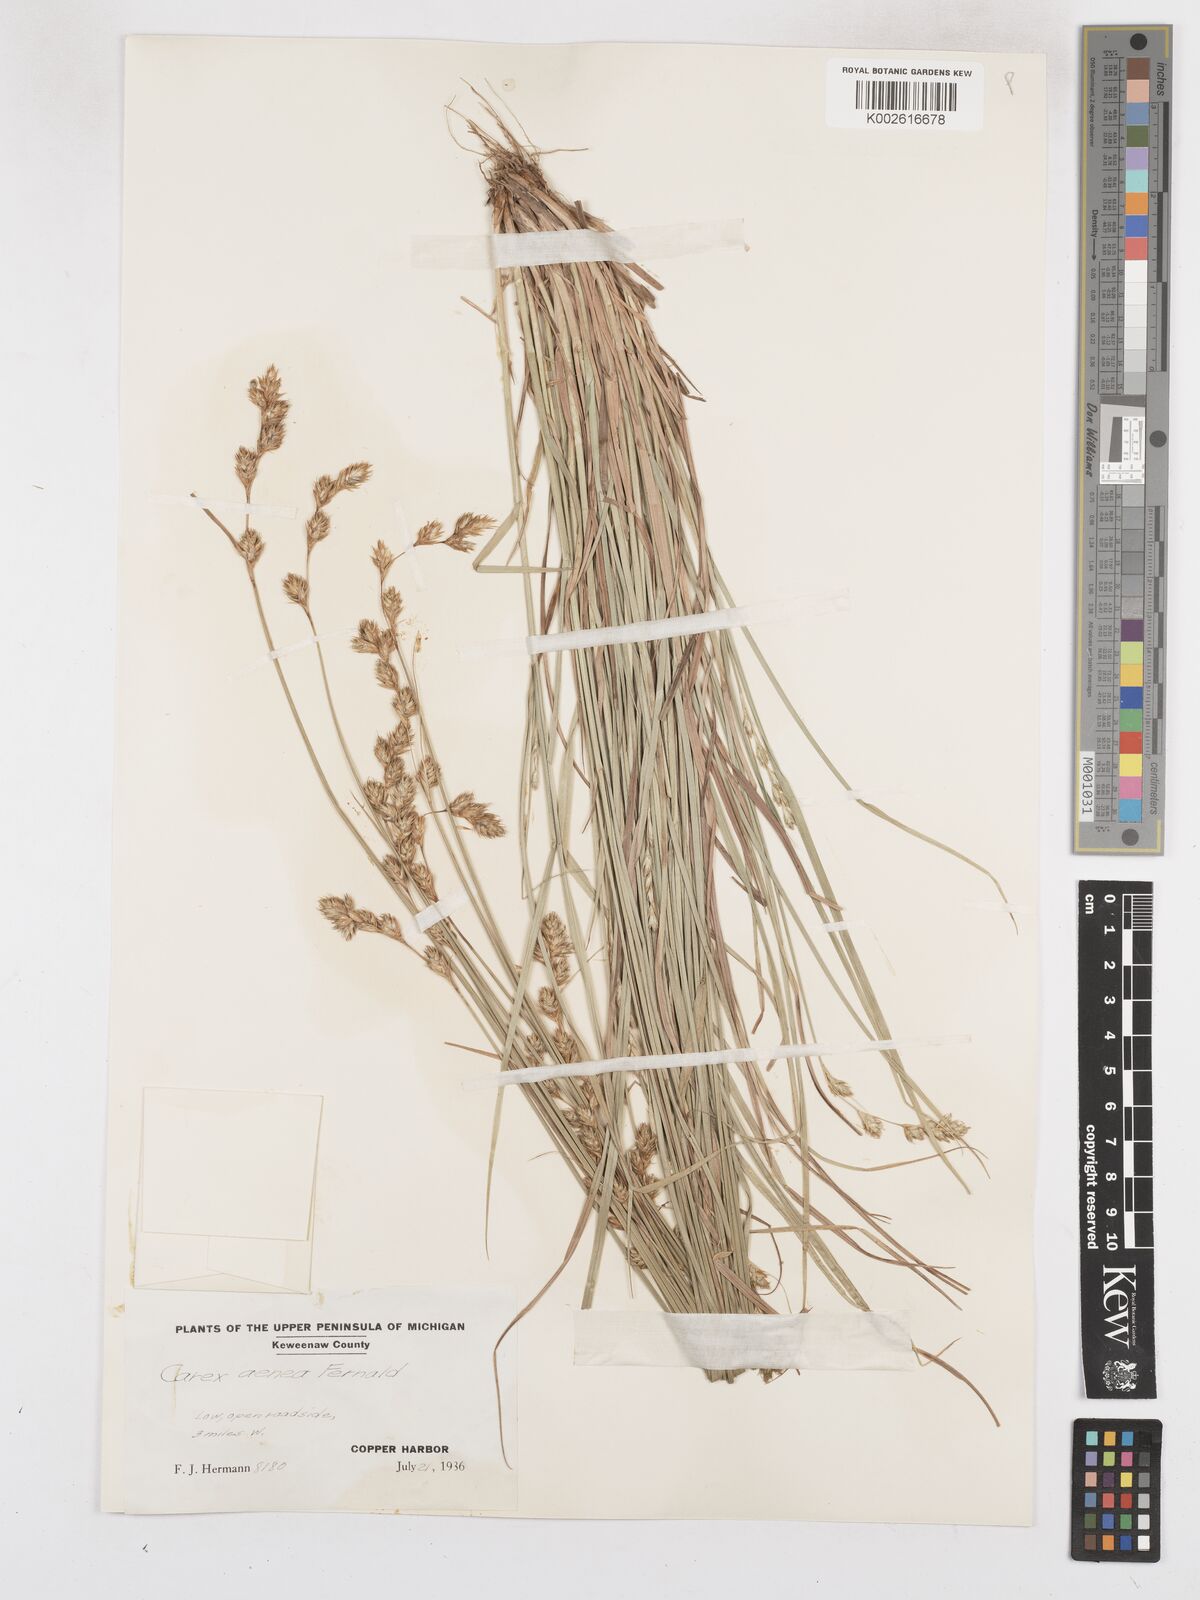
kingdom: Plantae
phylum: Tracheophyta
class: Liliopsida
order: Poales
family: Cyperaceae
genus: Carex
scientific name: Carex foenea
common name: Bronze sedge
